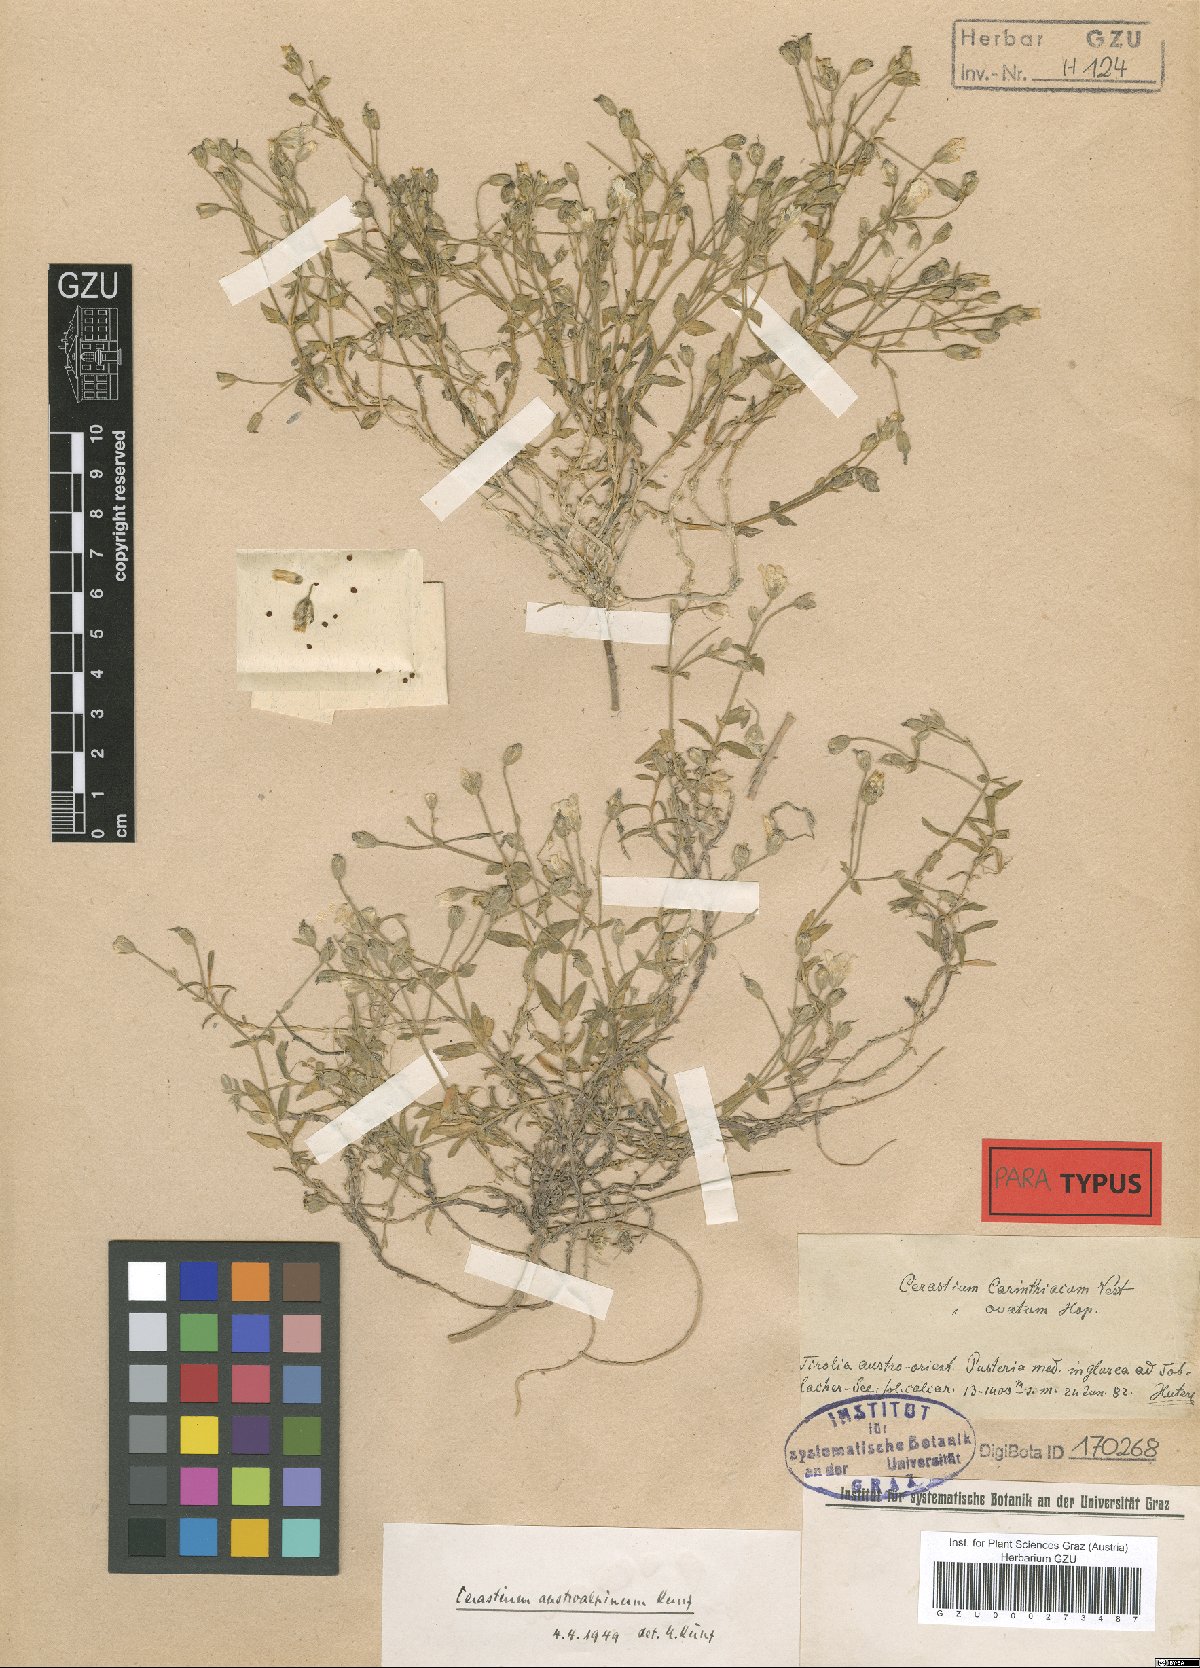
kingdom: Plantae
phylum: Tracheophyta
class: Magnoliopsida
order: Caryophyllales
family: Caryophyllaceae
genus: Cerastium
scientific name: Cerastium carinthiacum
